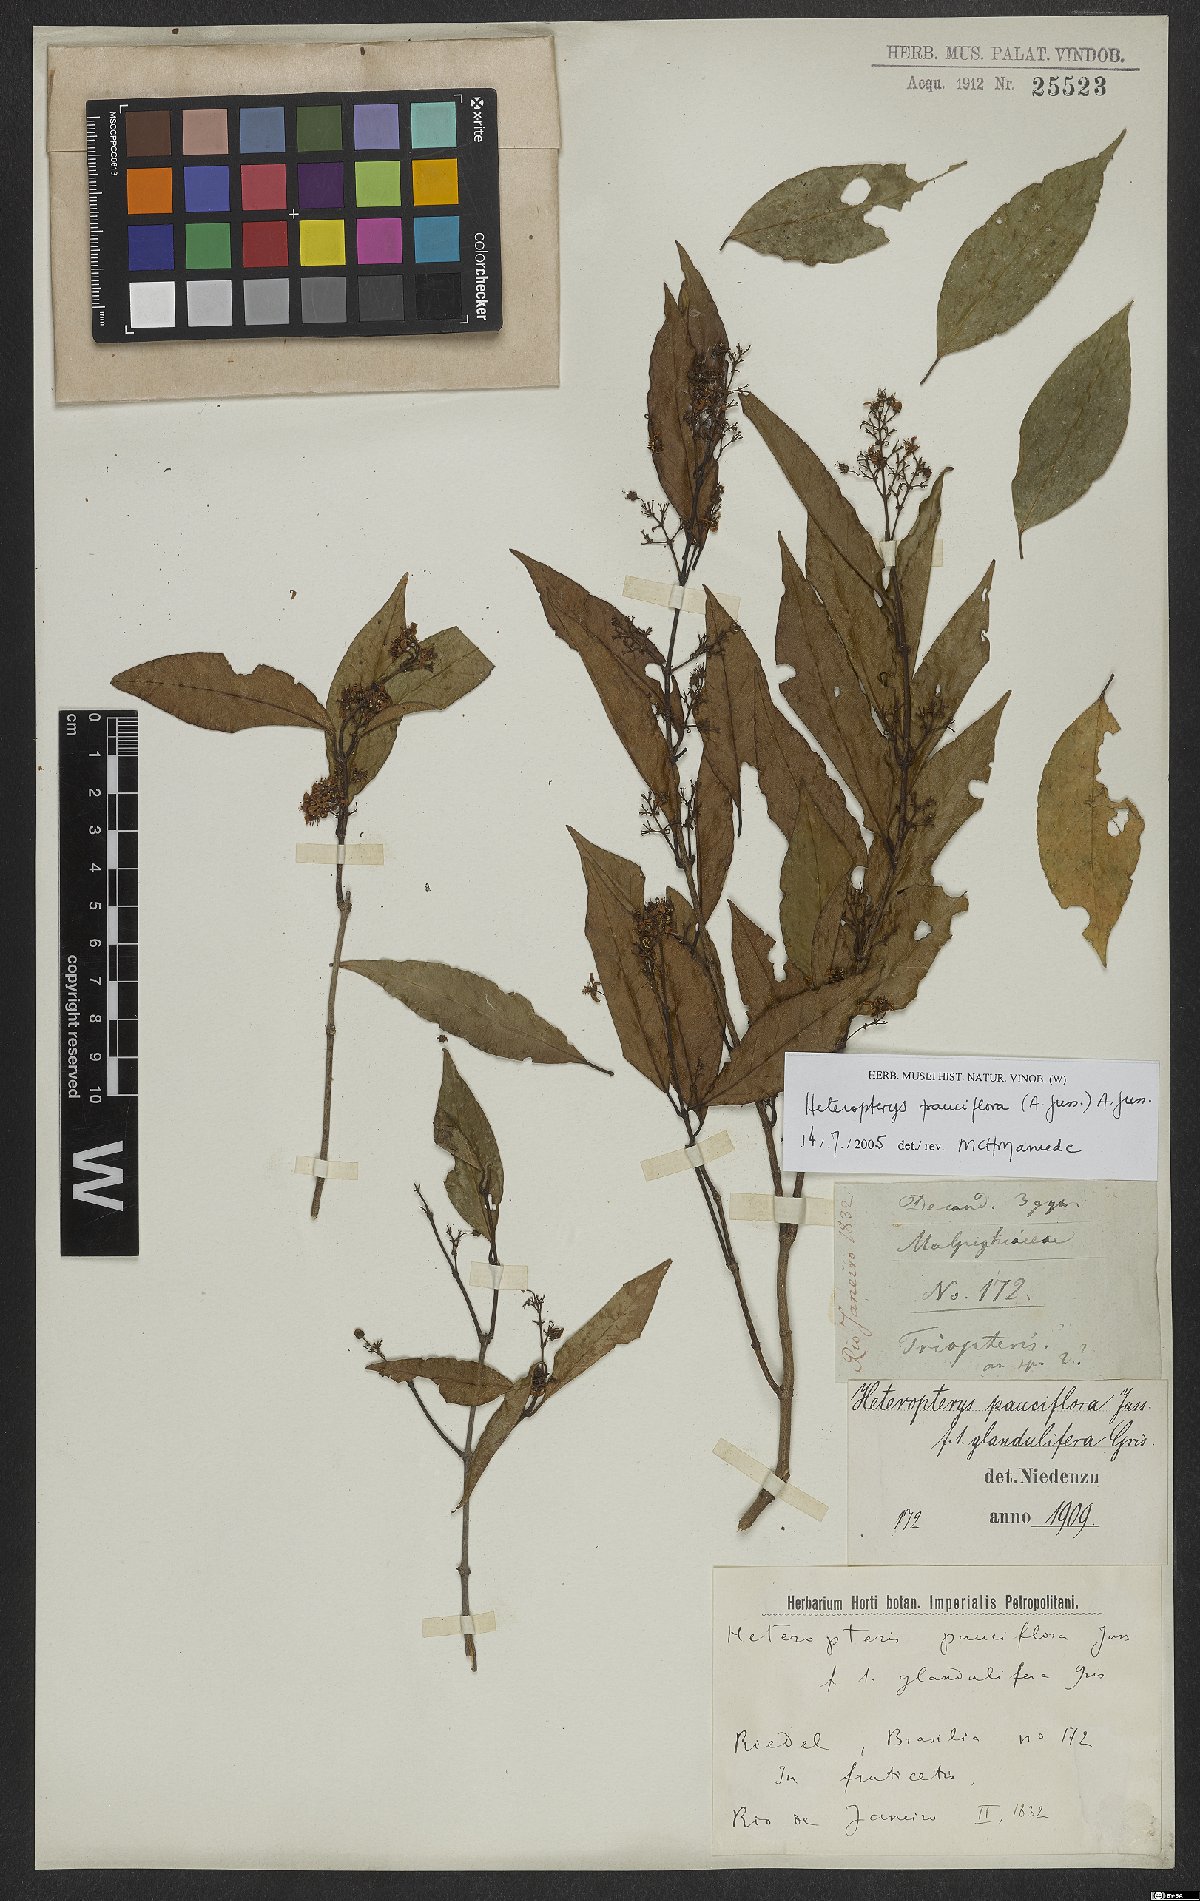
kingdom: Plantae
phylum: Tracheophyta
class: Magnoliopsida
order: Malpighiales
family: Malpighiaceae
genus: Heteropterys
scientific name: Heteropterys pauciflora
